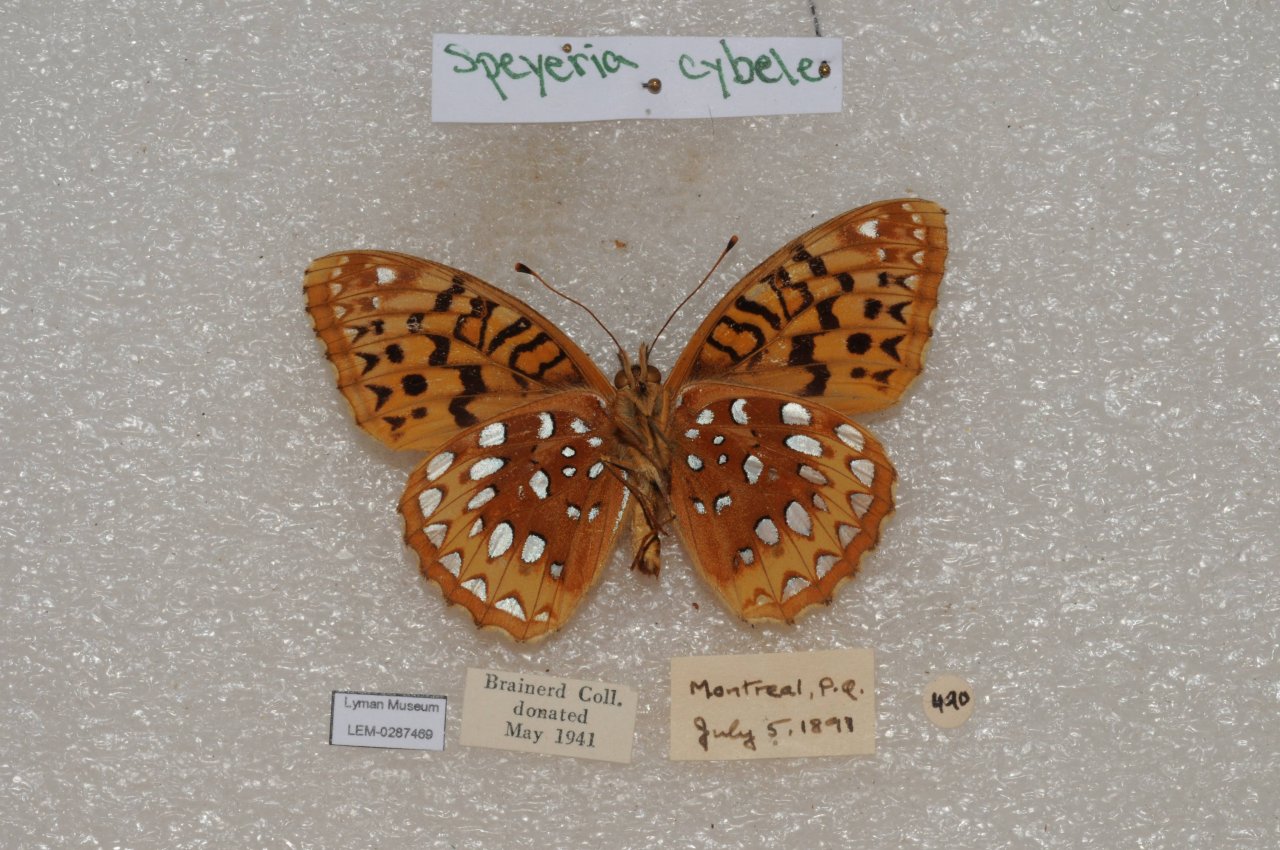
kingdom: Animalia
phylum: Arthropoda
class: Insecta
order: Lepidoptera
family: Nymphalidae
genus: Speyeria
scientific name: Speyeria cybele
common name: Great Spangled Fritillary
